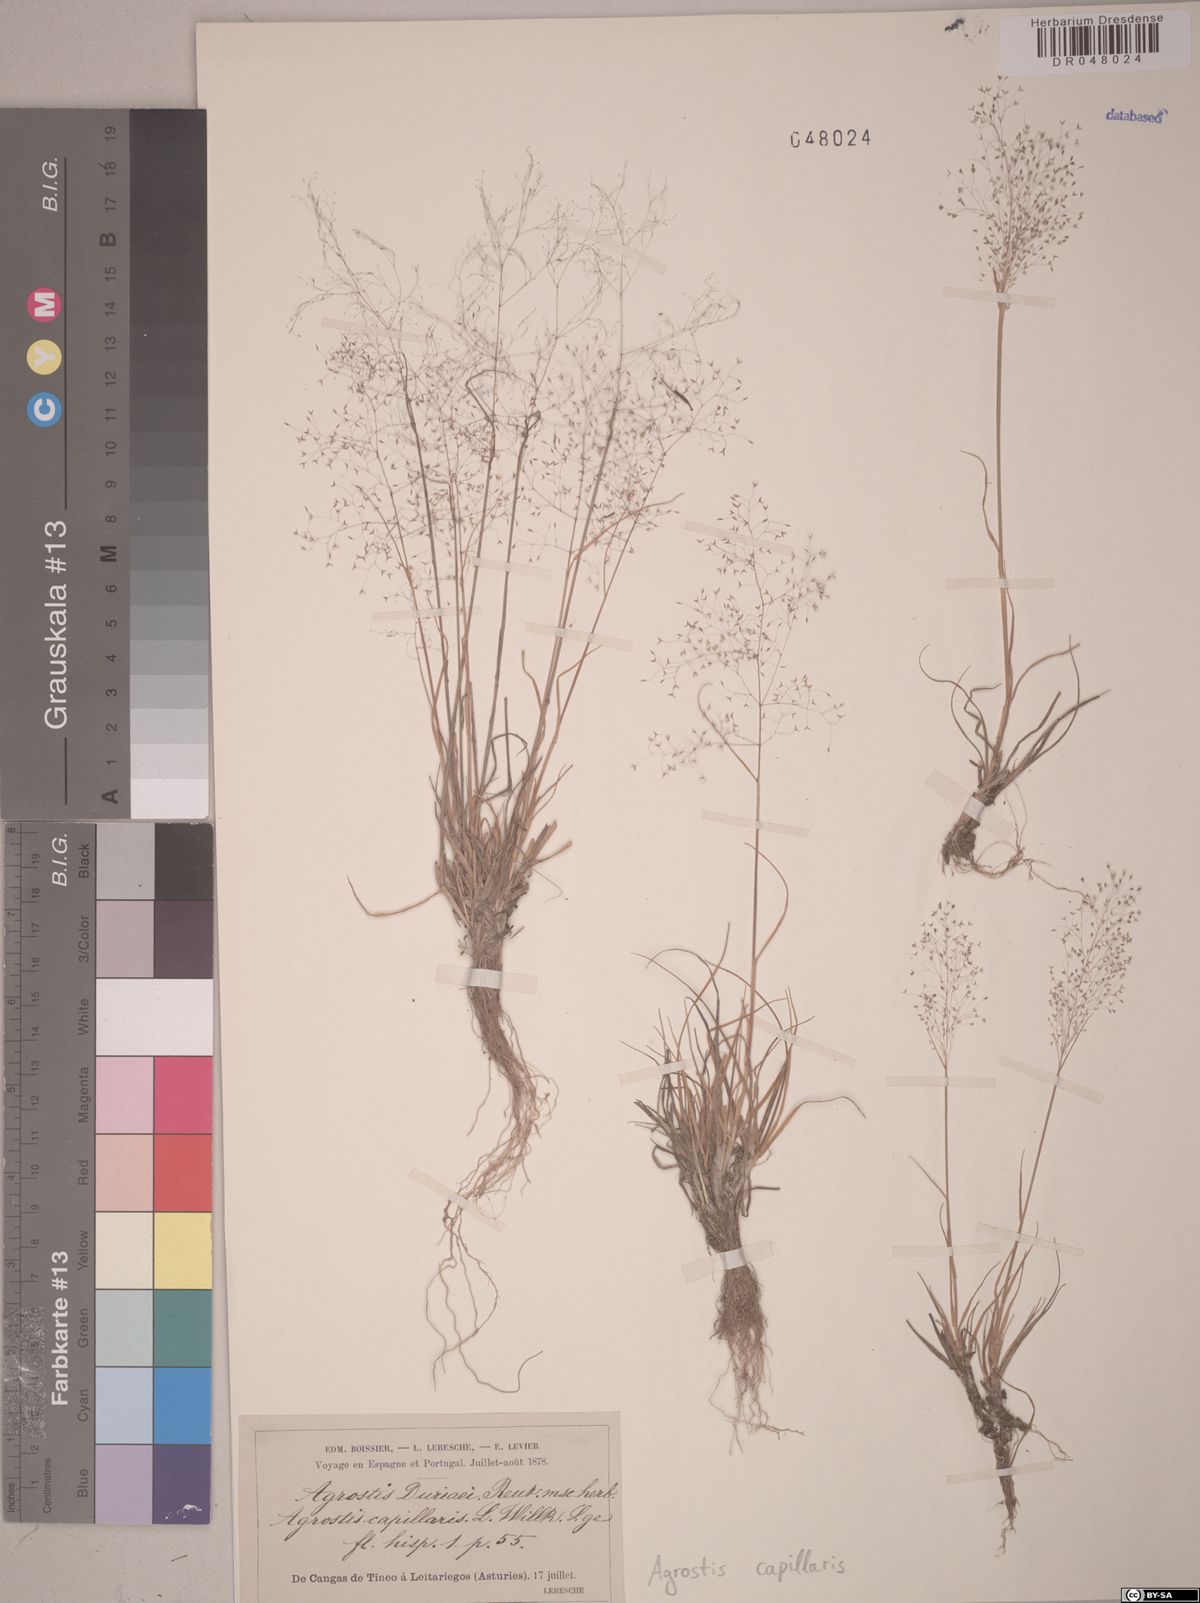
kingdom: Plantae
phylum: Tracheophyta
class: Liliopsida
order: Poales
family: Poaceae
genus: Agrostis
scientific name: Agrostis capillaris
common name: Colonial bentgrass
